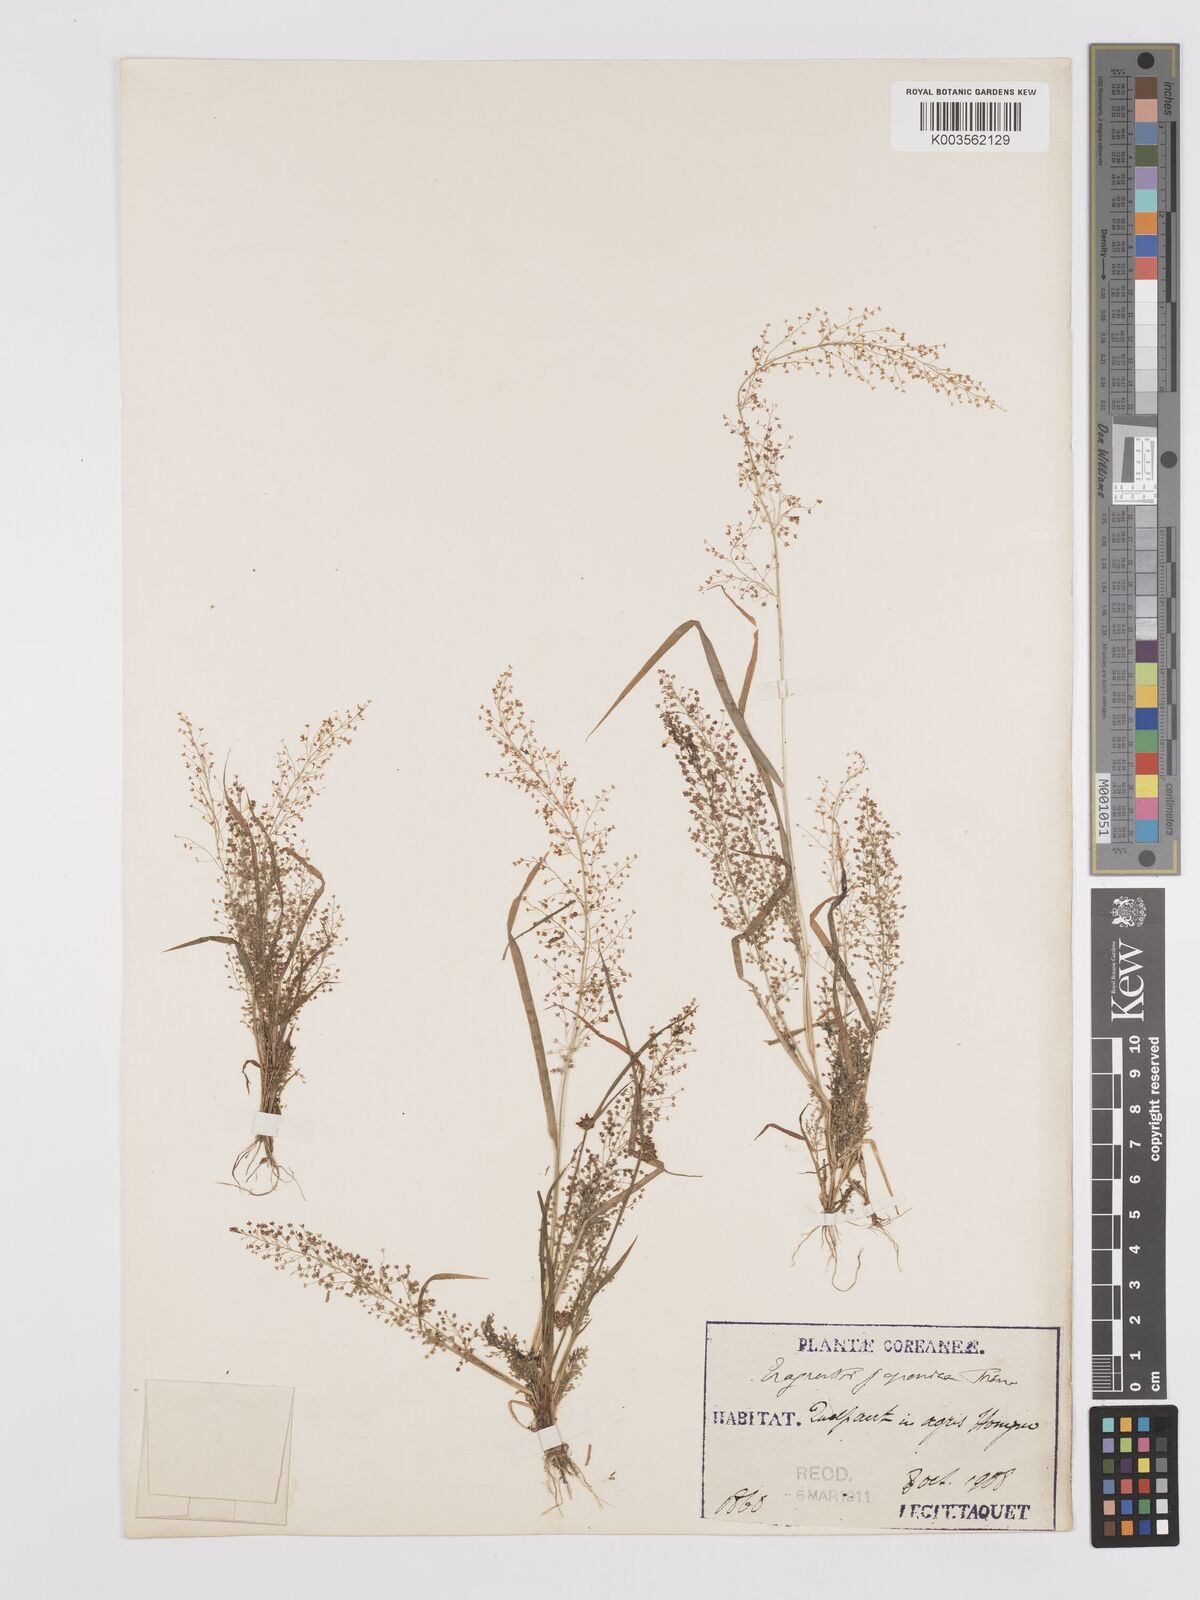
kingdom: Plantae
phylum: Tracheophyta
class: Liliopsida
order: Poales
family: Poaceae
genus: Eragrostis
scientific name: Eragrostis japonica
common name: Pond lovegrass
